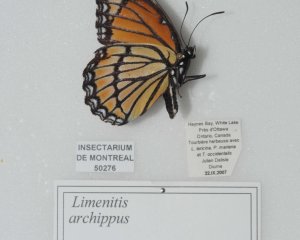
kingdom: Animalia
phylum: Arthropoda
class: Insecta
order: Lepidoptera
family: Nymphalidae
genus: Limenitis
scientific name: Limenitis archippus
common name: Viceroy
